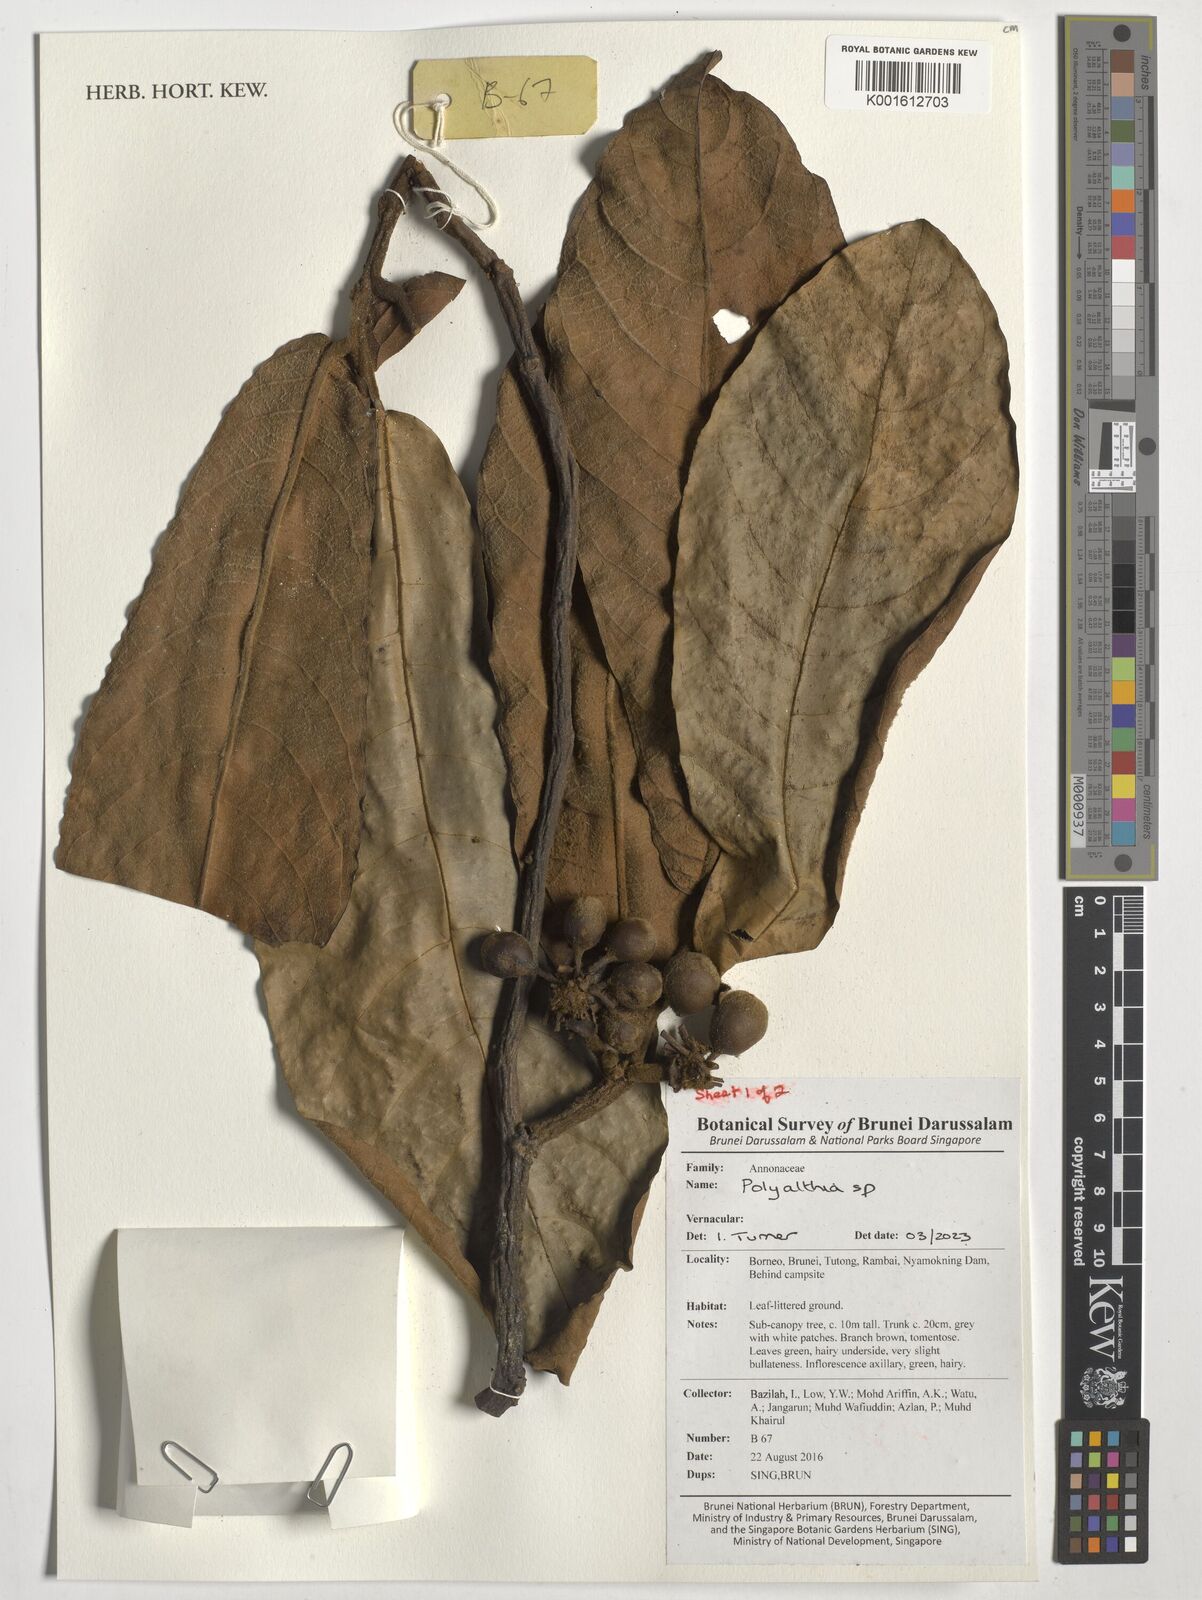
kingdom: Plantae
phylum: Tracheophyta
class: Magnoliopsida
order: Magnoliales
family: Annonaceae
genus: Polyalthia
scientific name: Polyalthia
